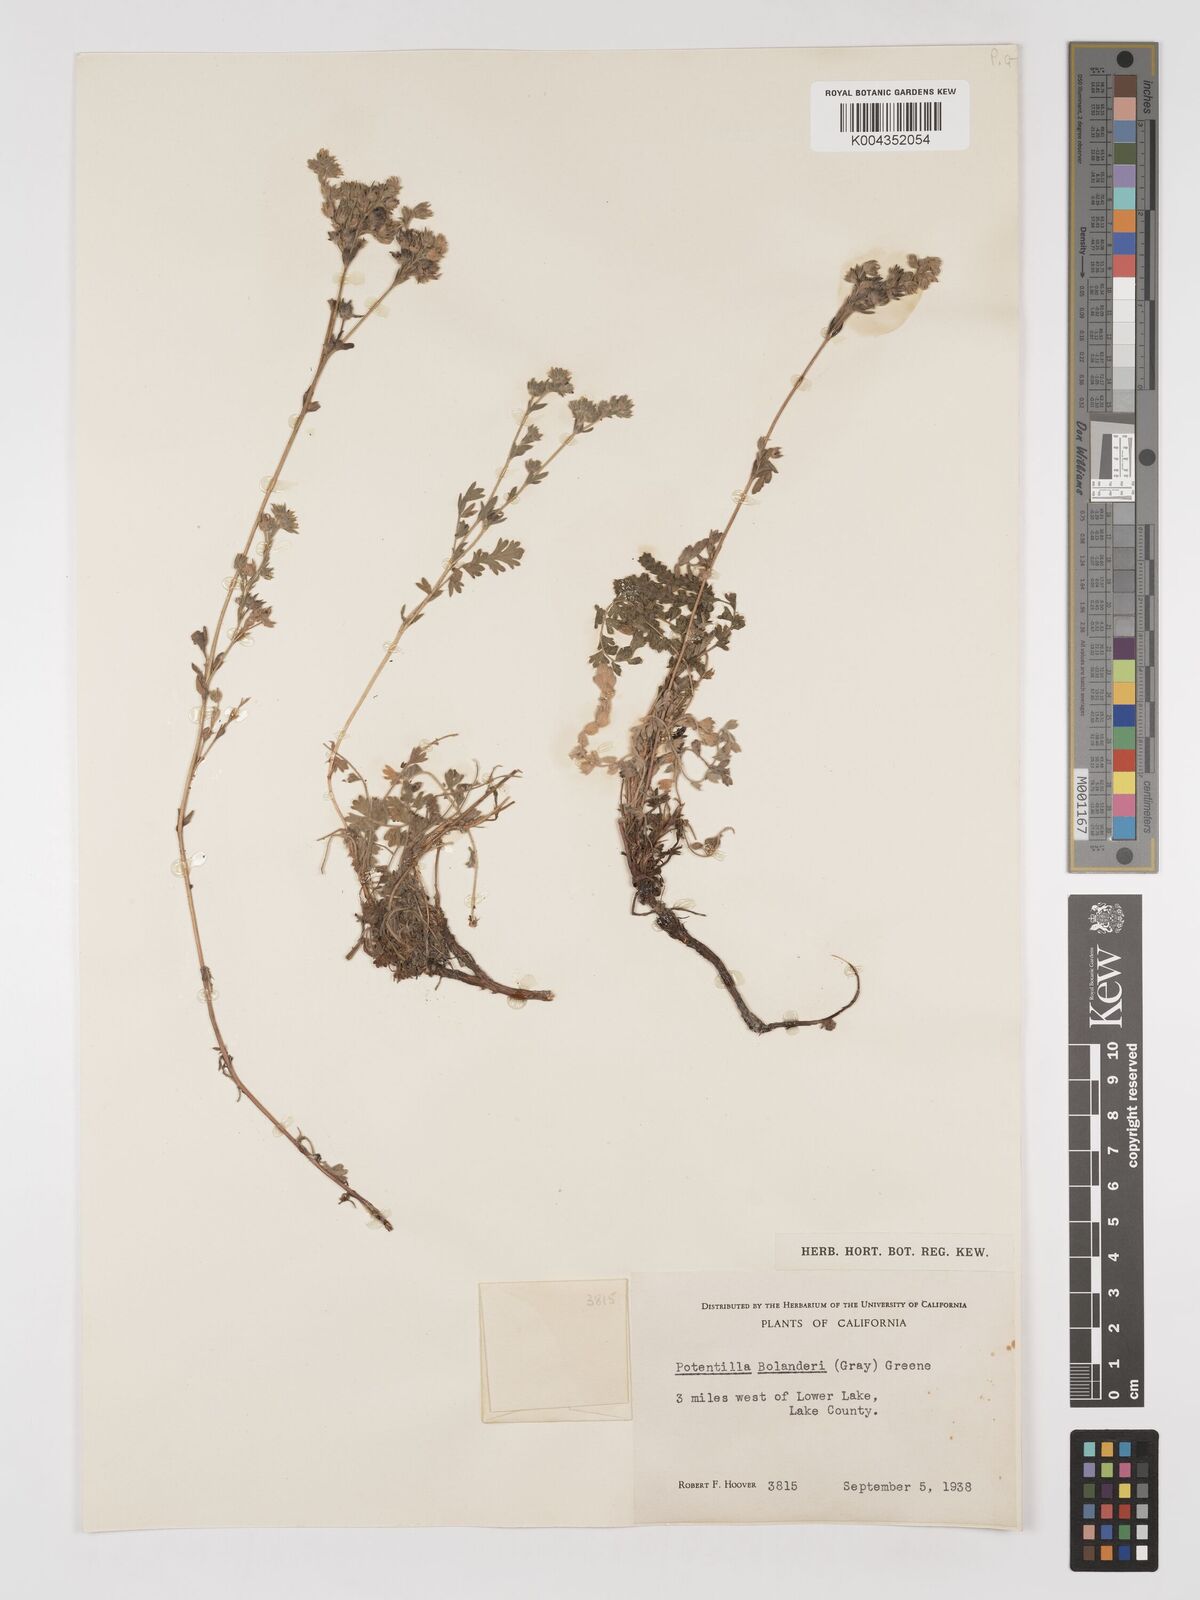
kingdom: Plantae
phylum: Tracheophyta
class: Magnoliopsida
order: Rosales
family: Rosaceae
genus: Potentilla
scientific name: Potentilla bolanderi
